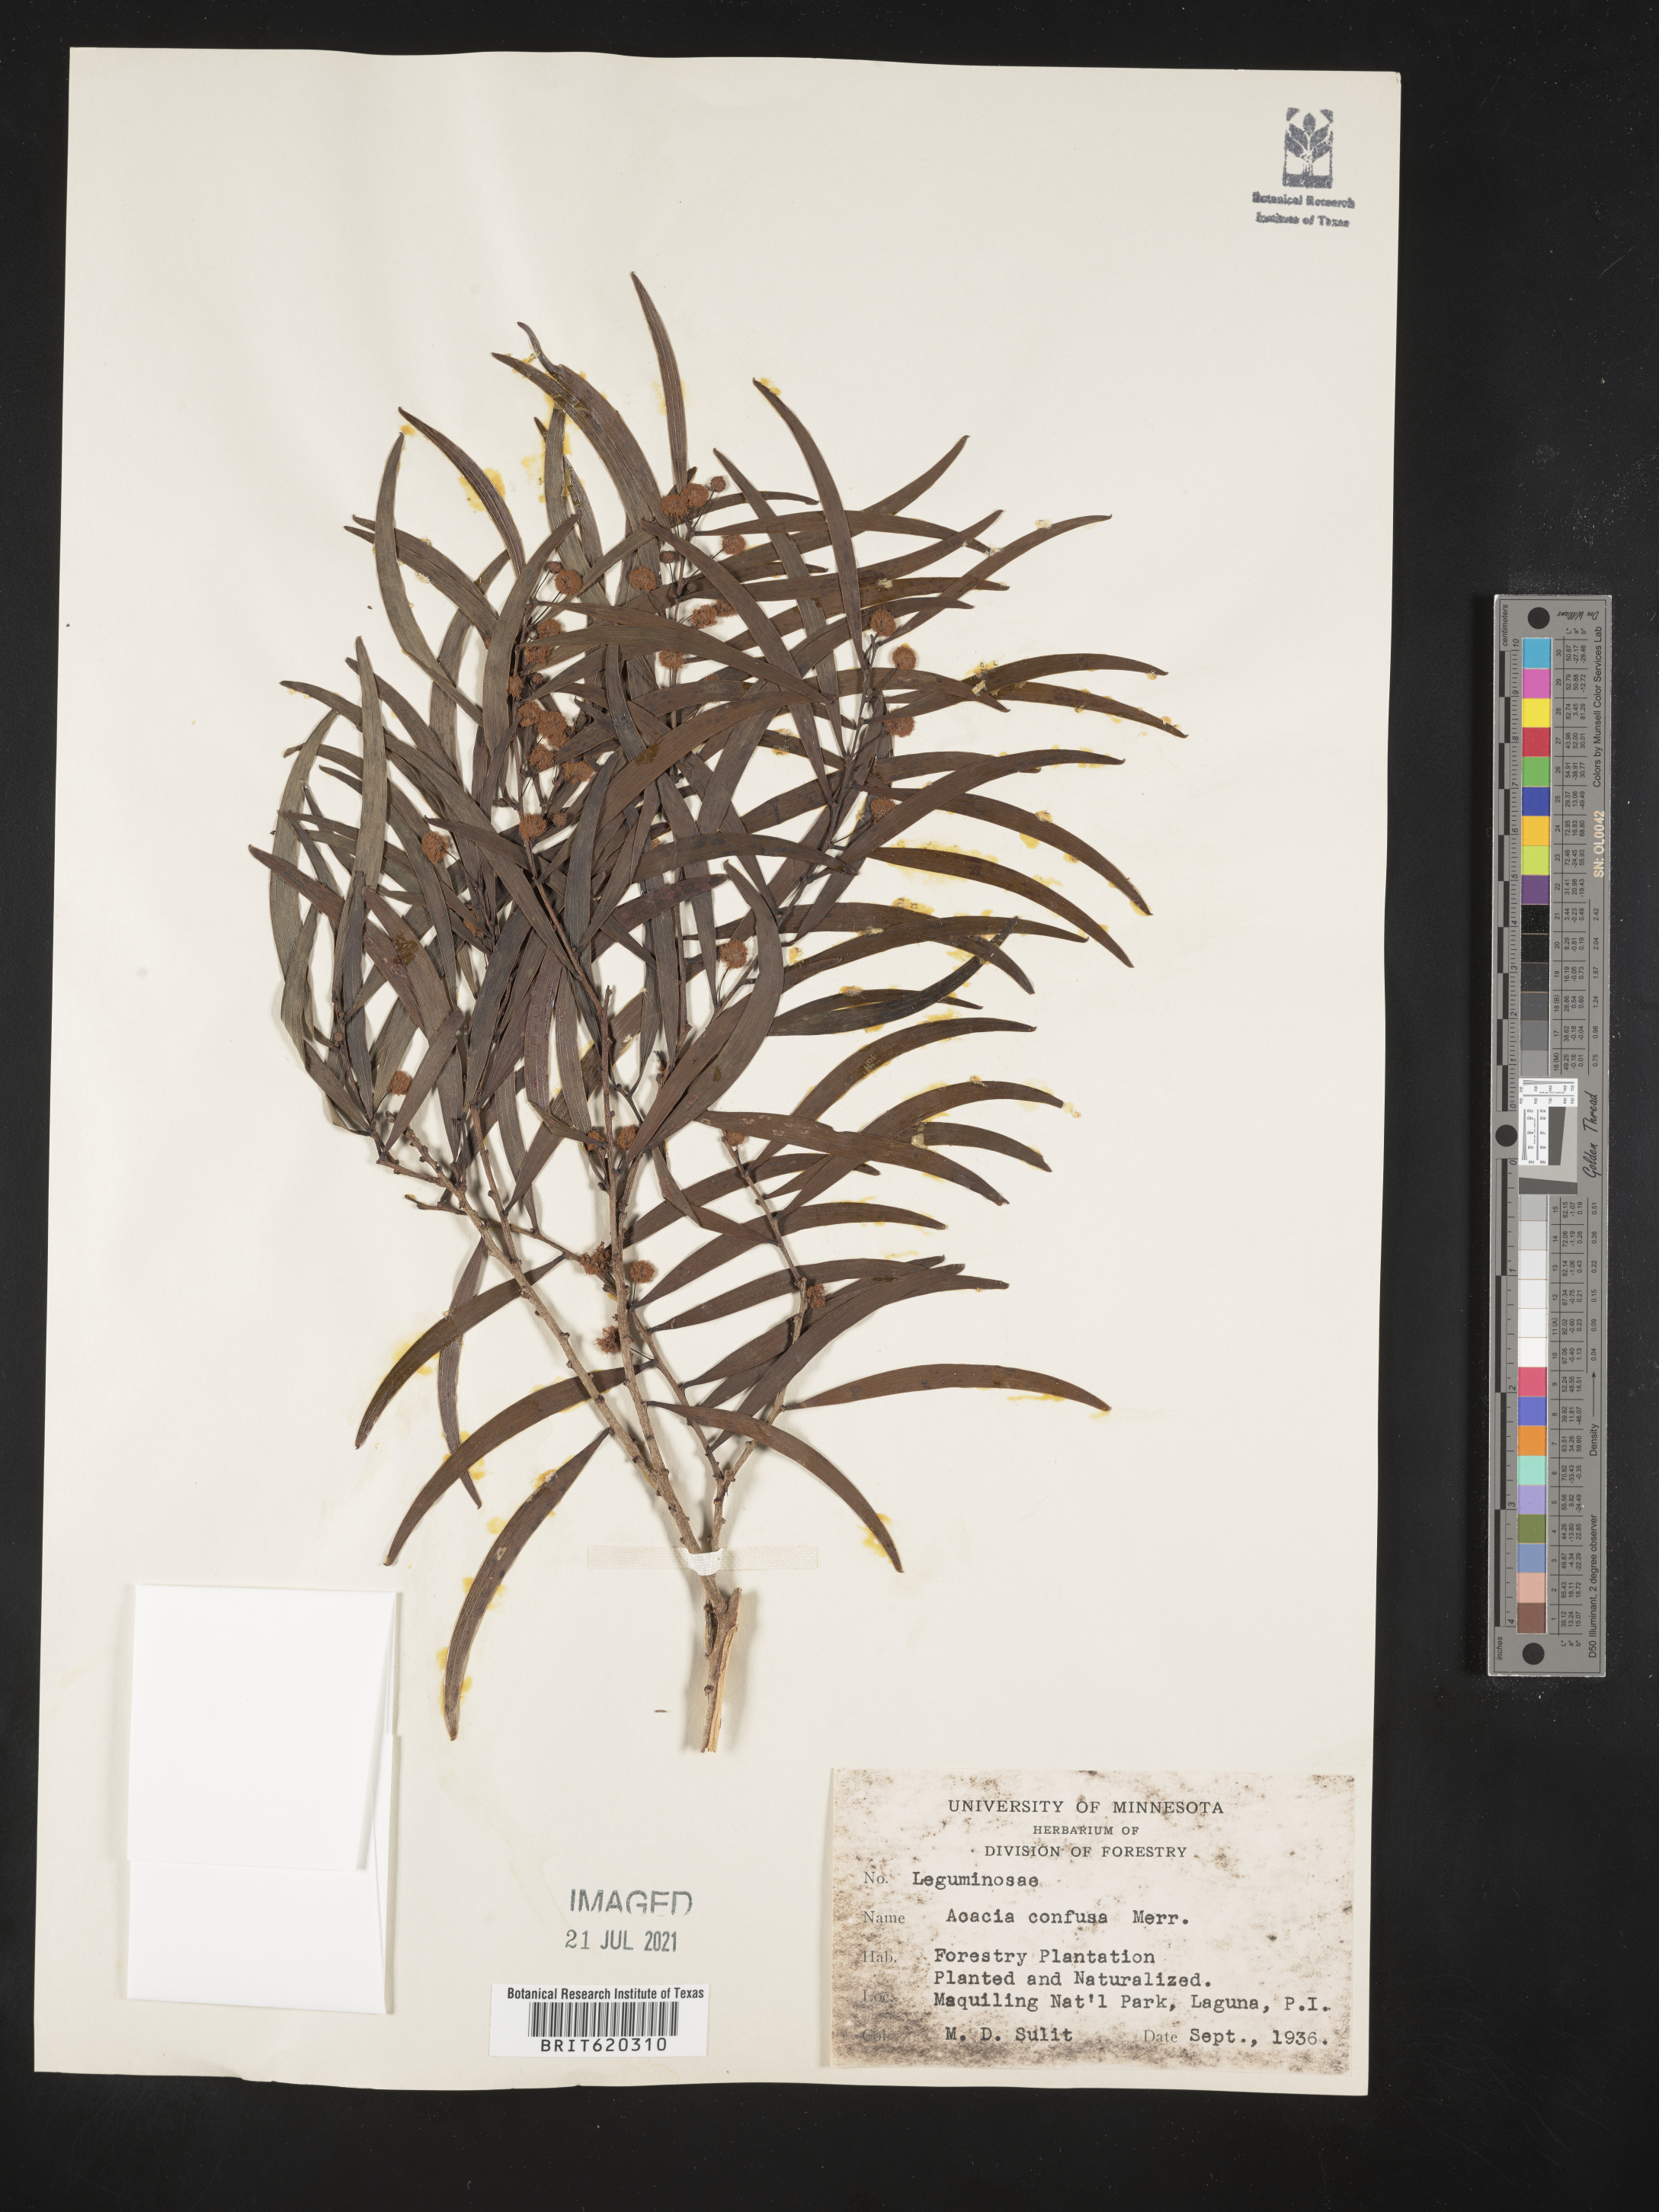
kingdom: Plantae
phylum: Tracheophyta
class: Magnoliopsida
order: Fabales
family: Fabaceae
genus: Acacia
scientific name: Acacia confusa
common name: Formosan koa
